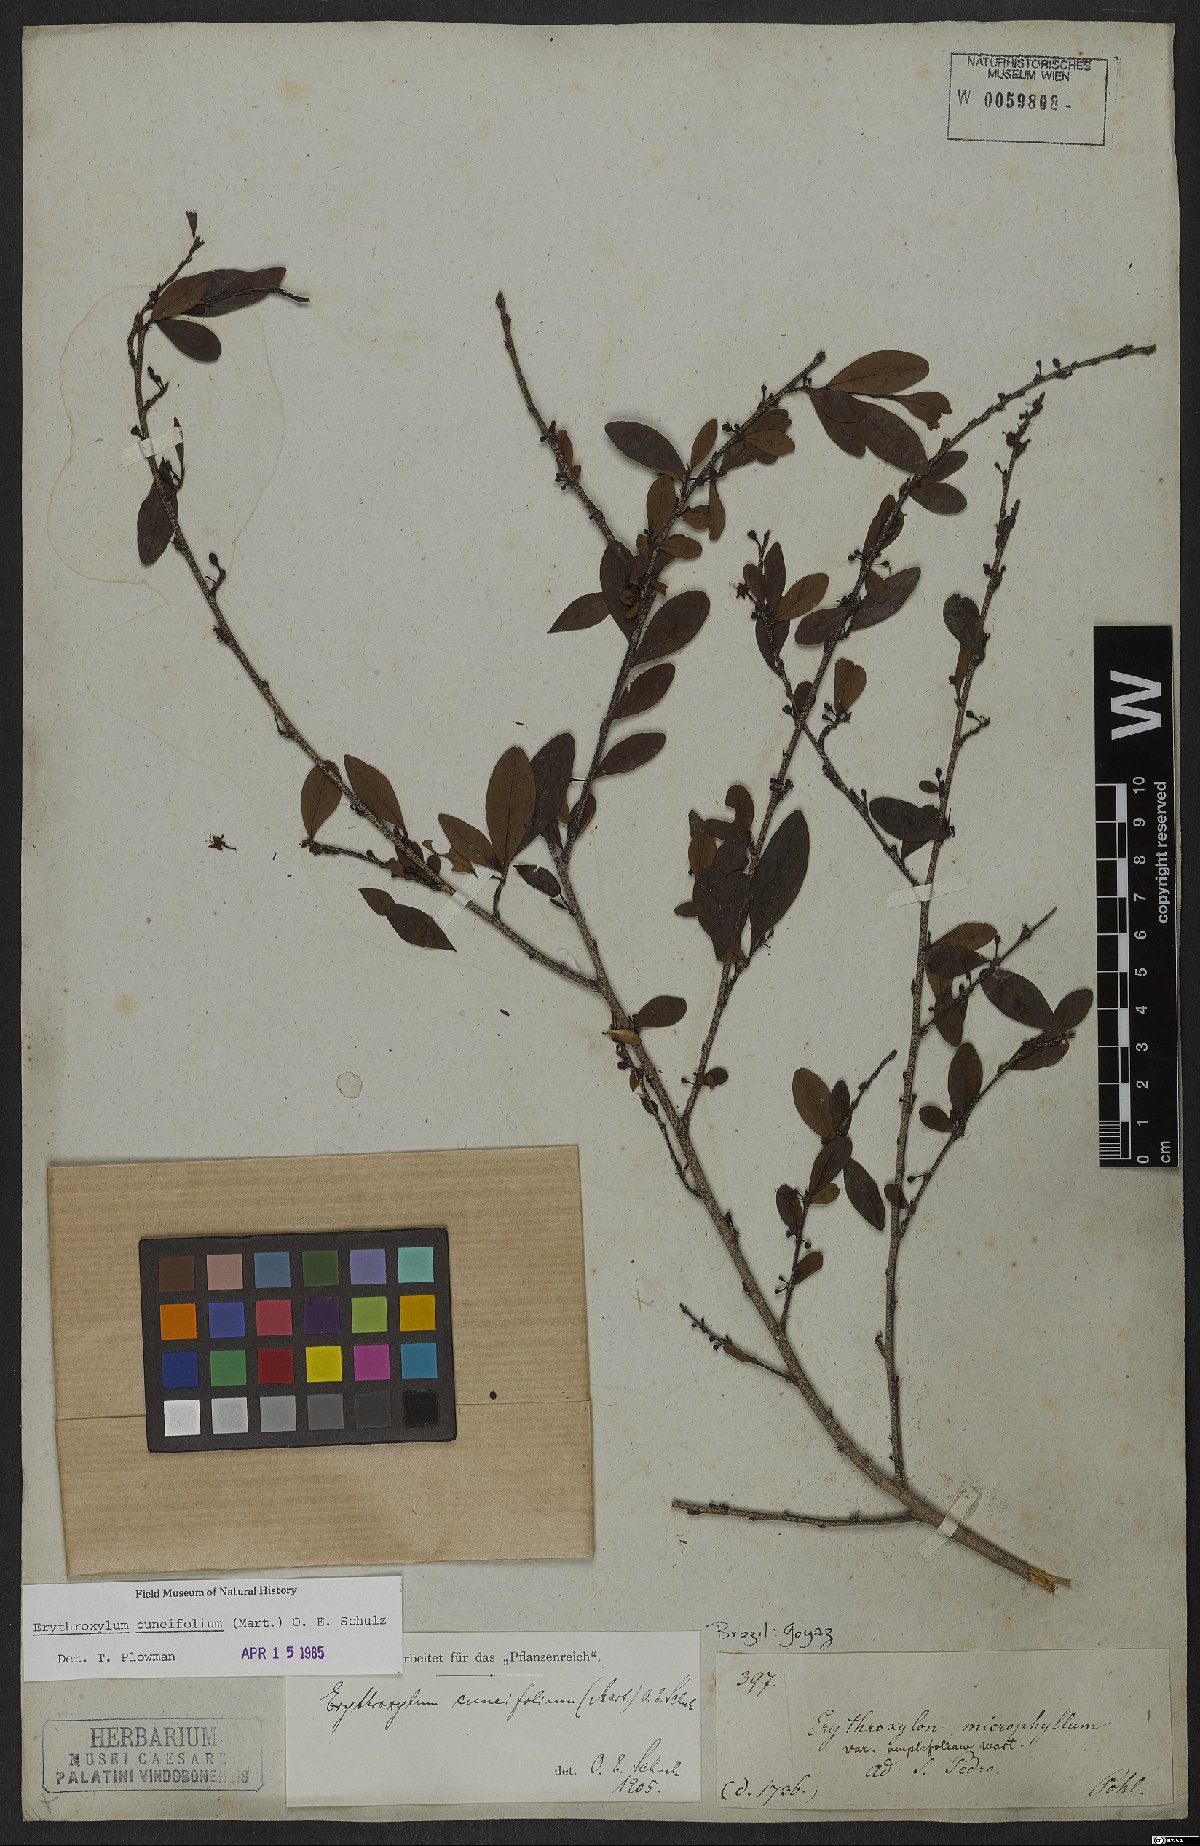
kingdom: Plantae
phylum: Tracheophyta
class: Magnoliopsida
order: Malpighiales
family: Erythroxylaceae
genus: Erythroxylum
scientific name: Erythroxylum cuneifolium
